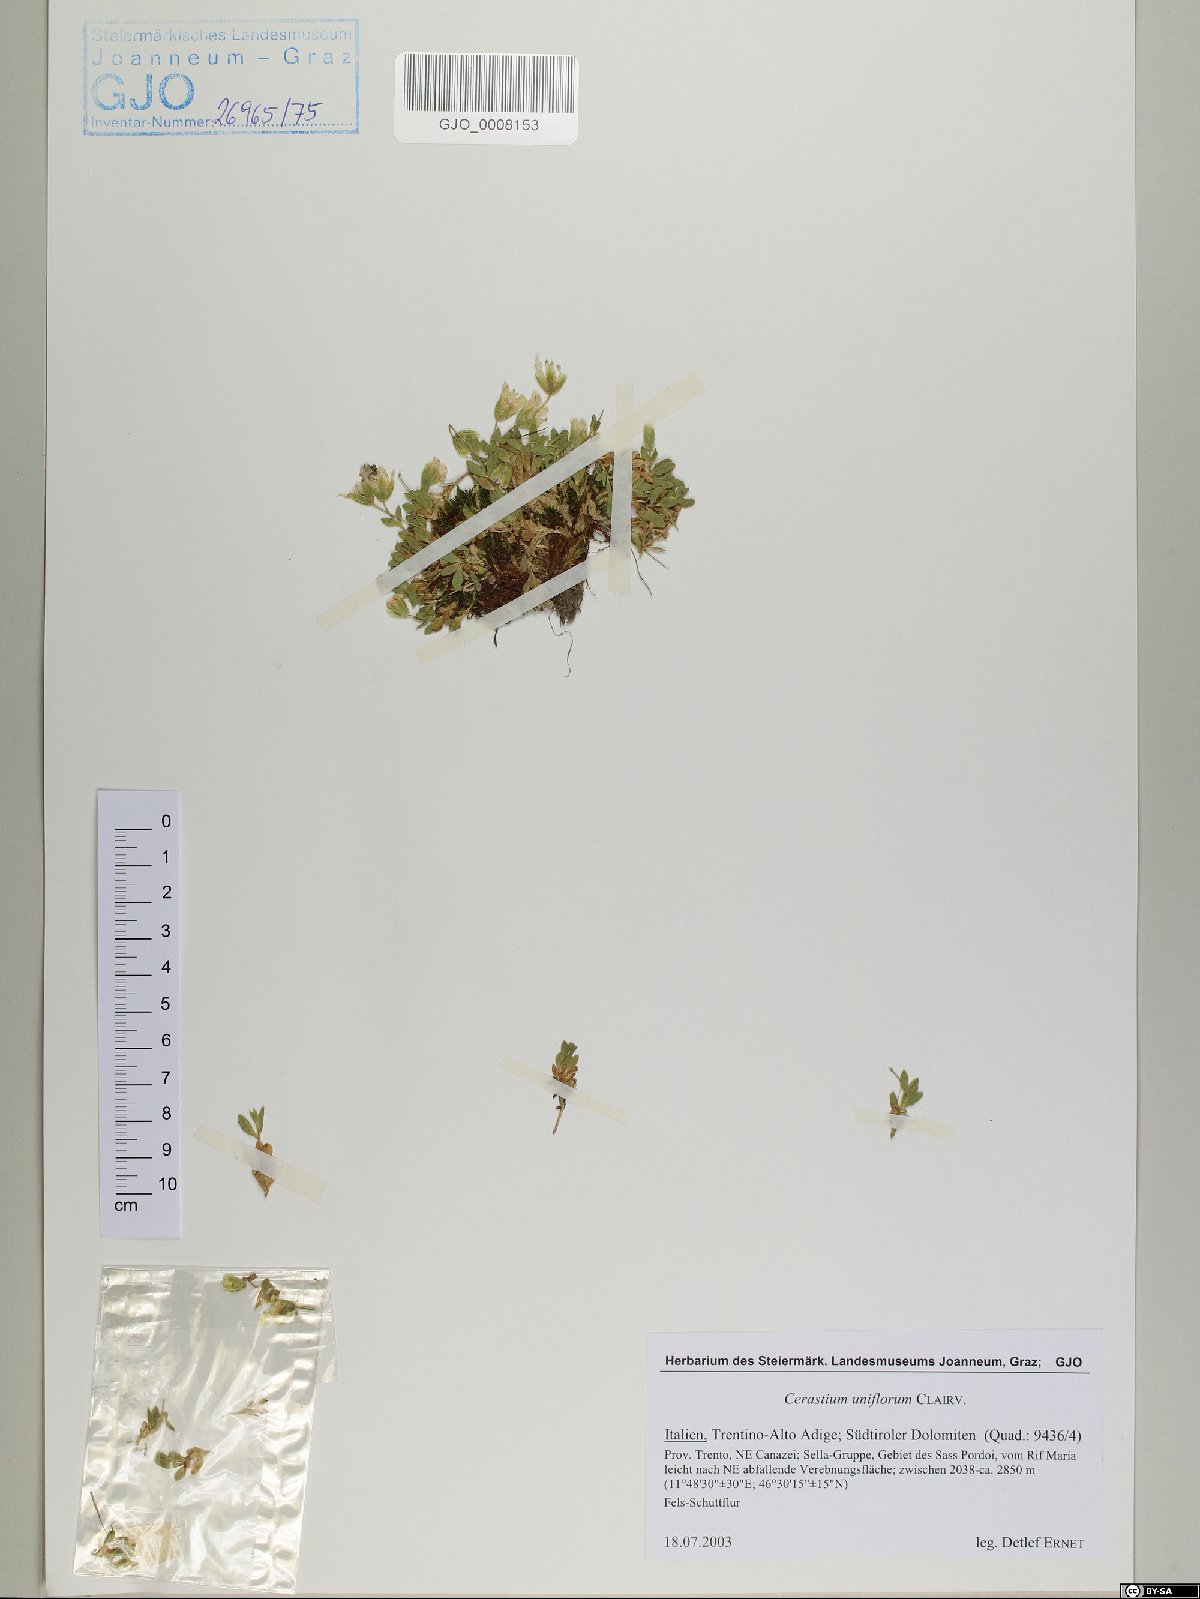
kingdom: Plantae
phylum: Tracheophyta
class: Magnoliopsida
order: Caryophyllales
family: Caryophyllaceae
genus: Cerastium
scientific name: Cerastium uniflorum
